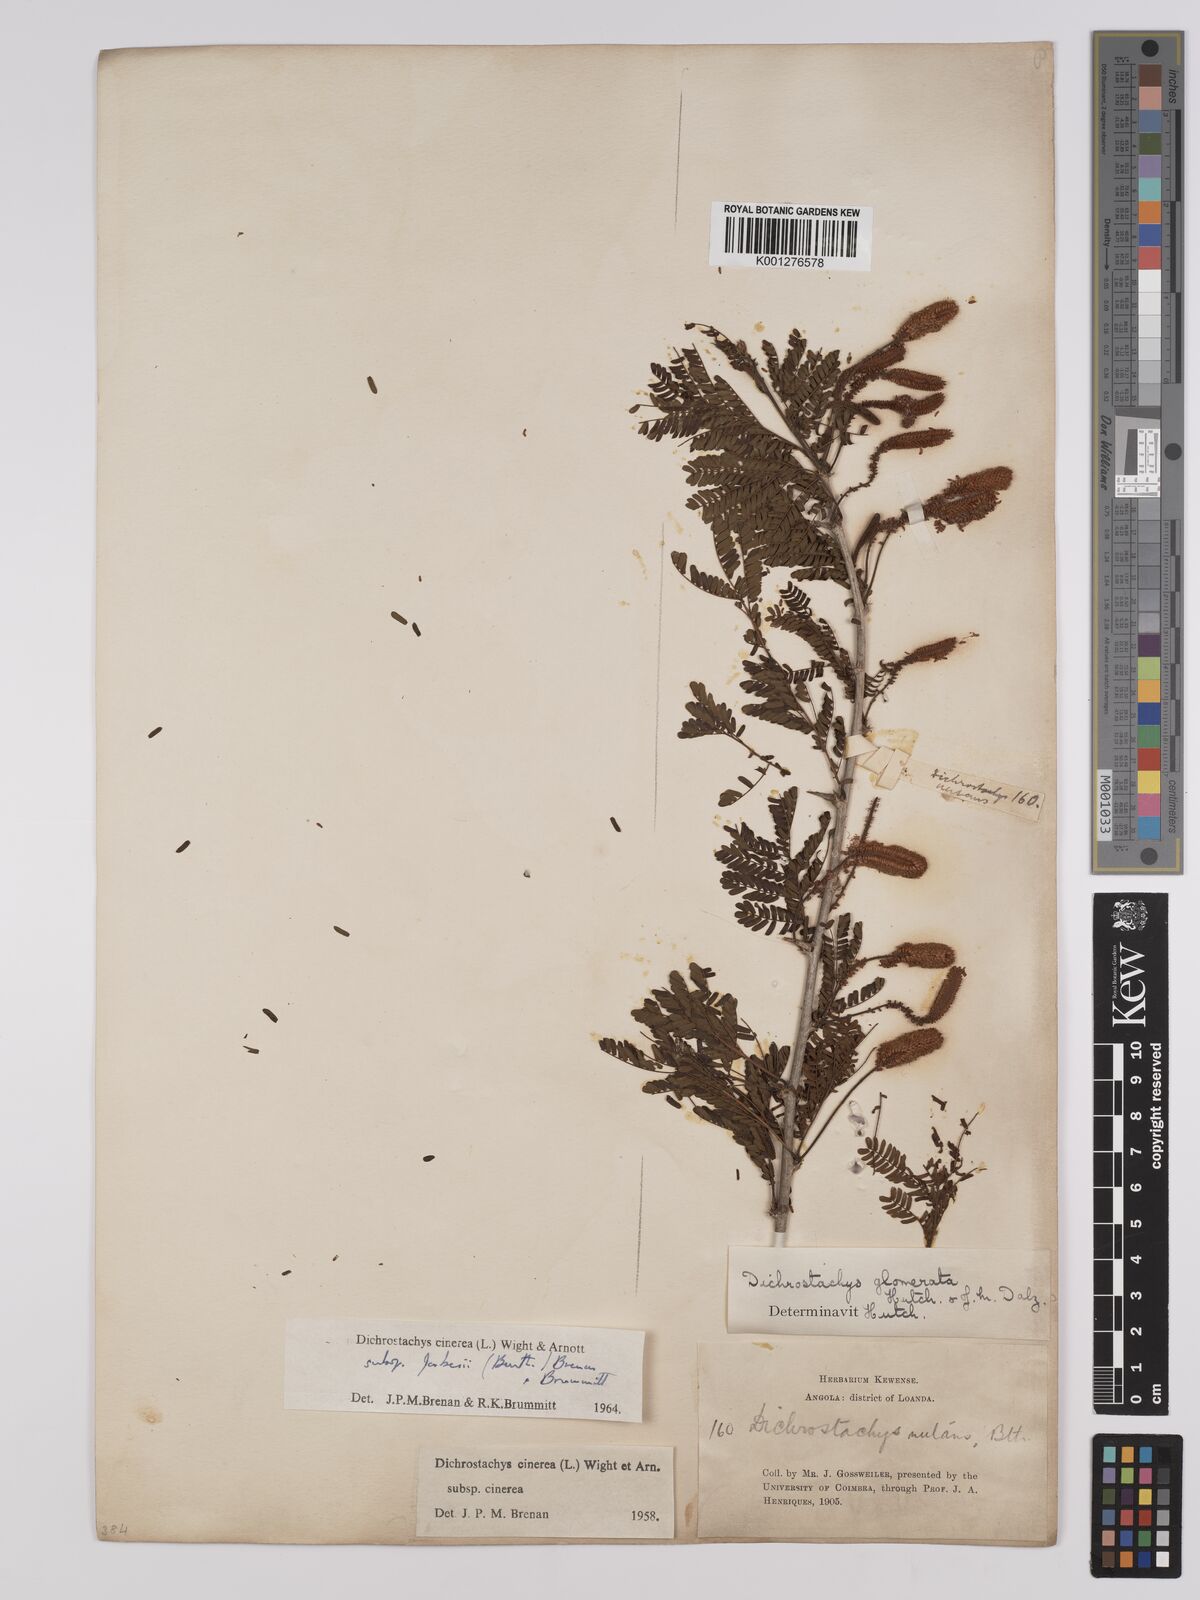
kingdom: Plantae
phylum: Tracheophyta
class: Magnoliopsida
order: Fabales
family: Fabaceae
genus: Dichrostachys
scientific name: Dichrostachys cinerea
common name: Sicklebush
